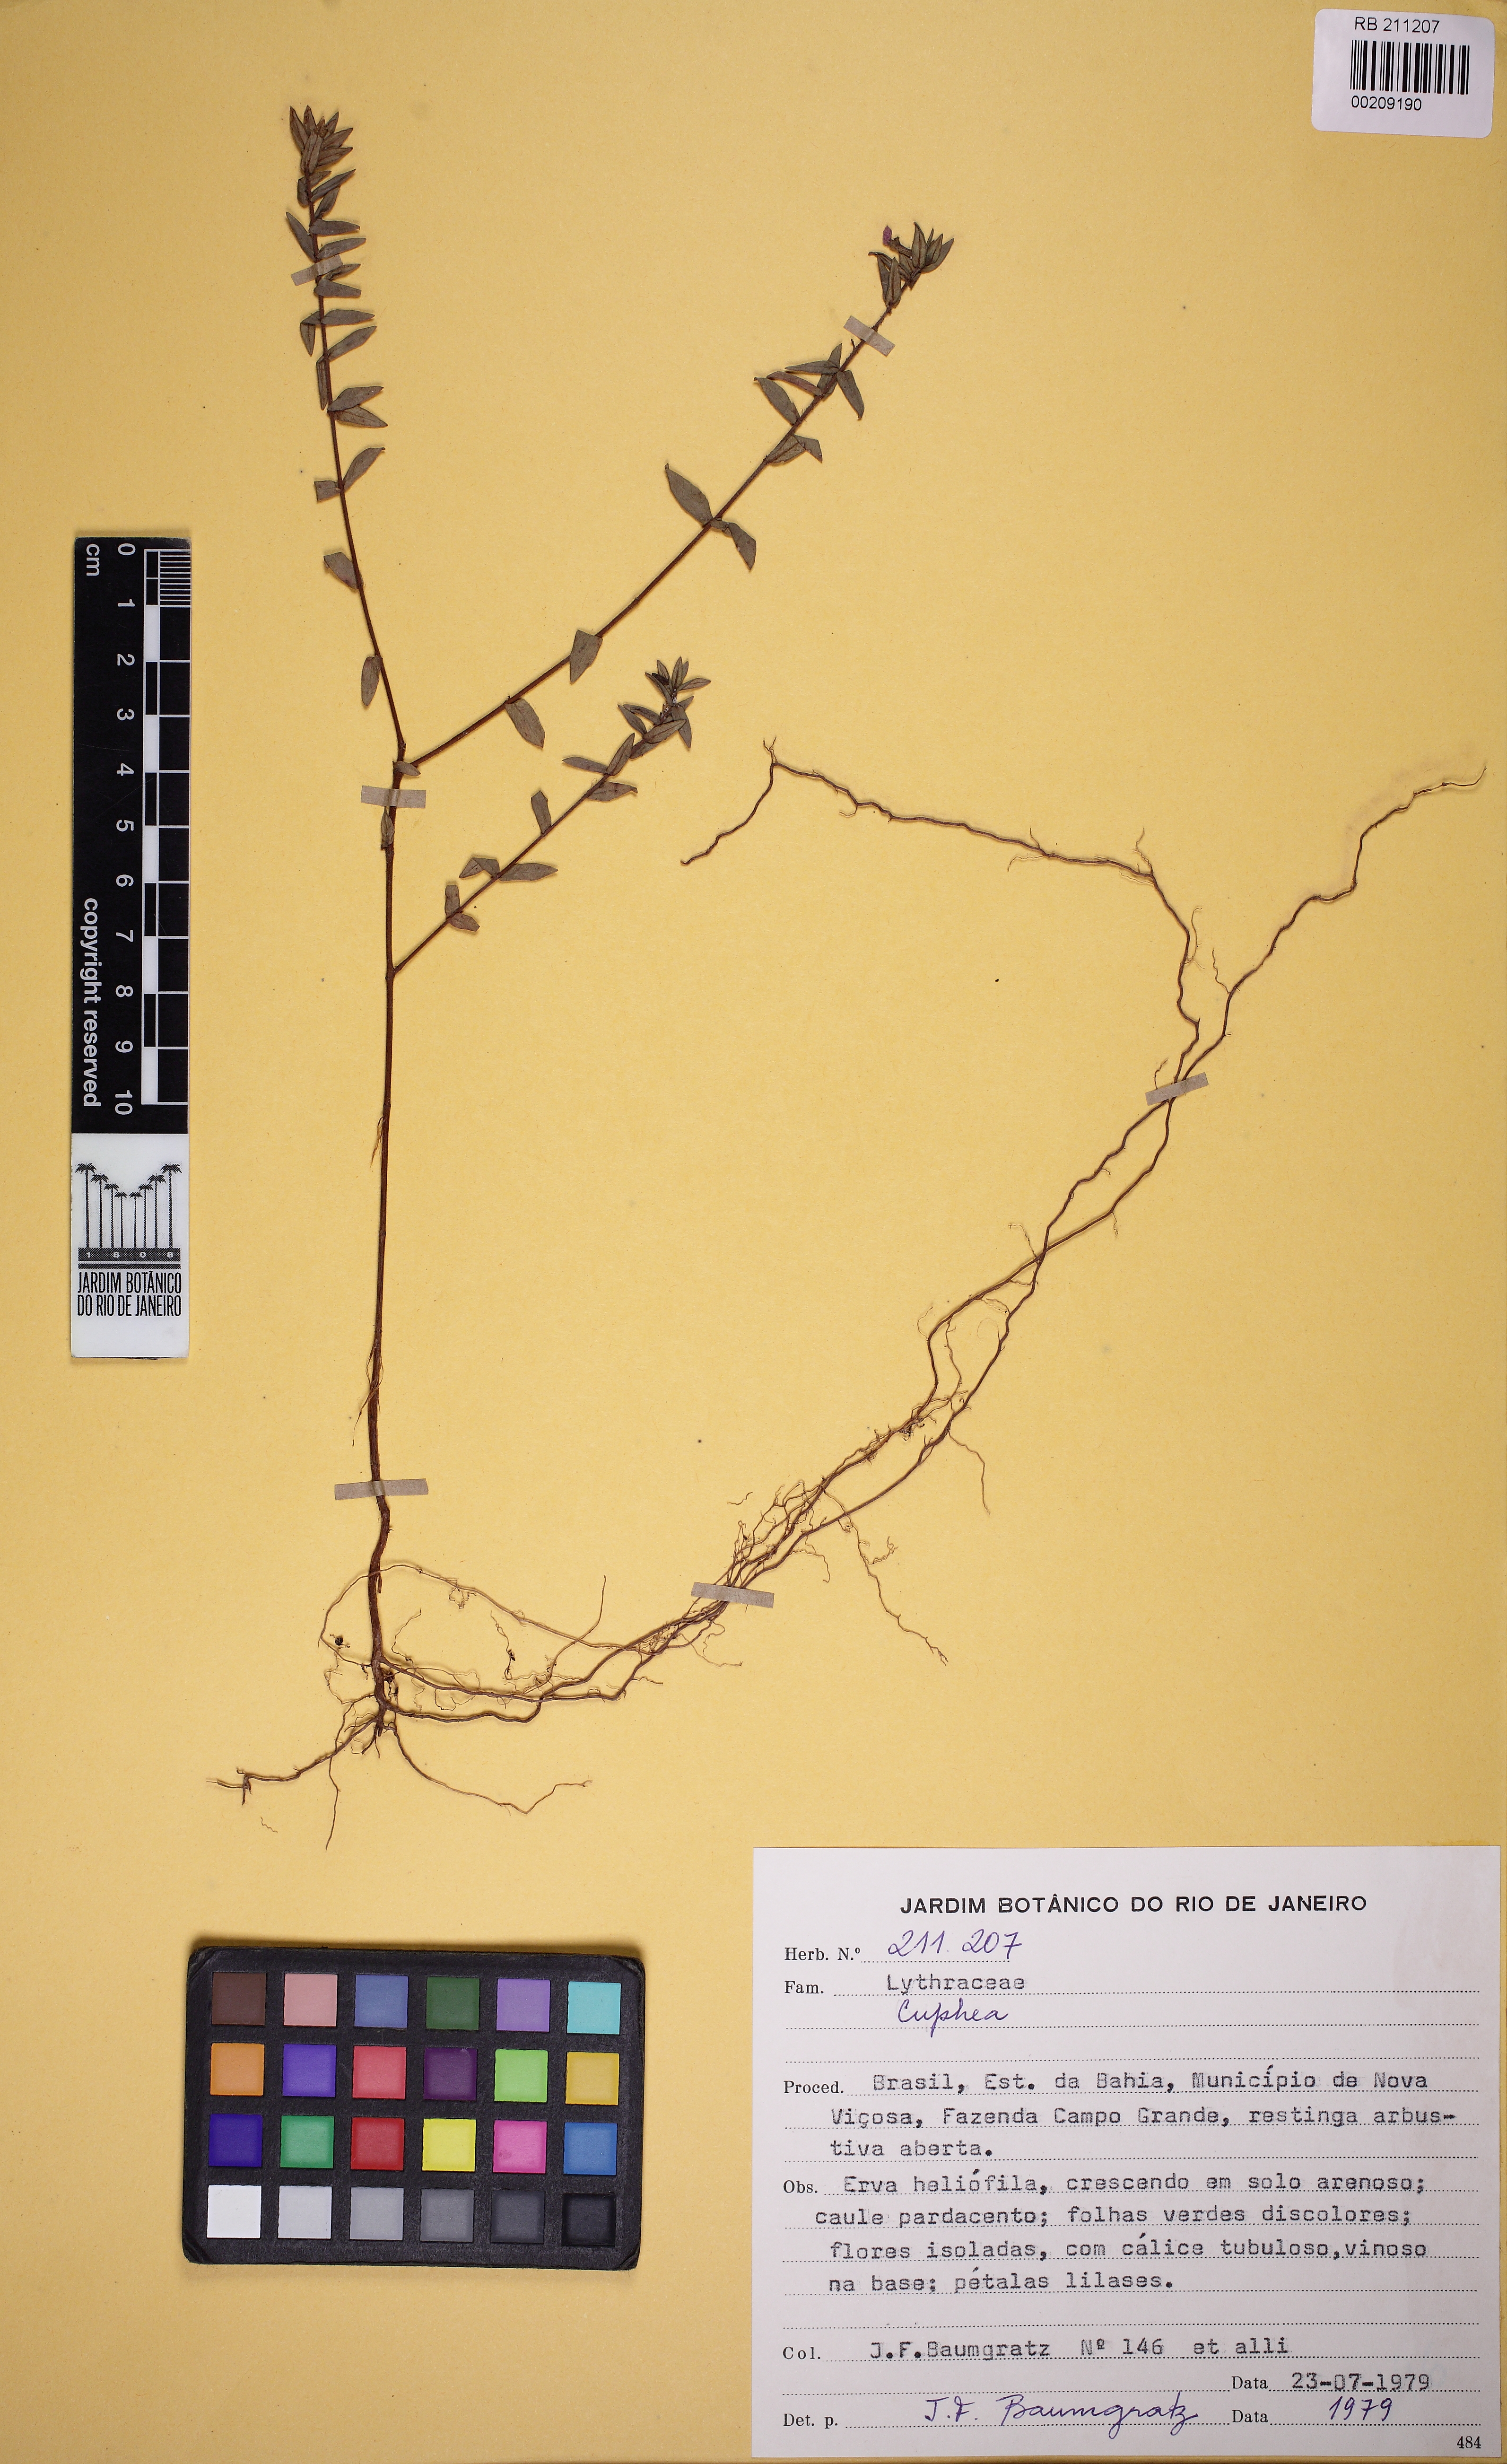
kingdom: Plantae
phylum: Tracheophyta
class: Magnoliopsida
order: Myrtales
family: Lythraceae
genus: Cuphea
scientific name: Cuphea sessilifolia
